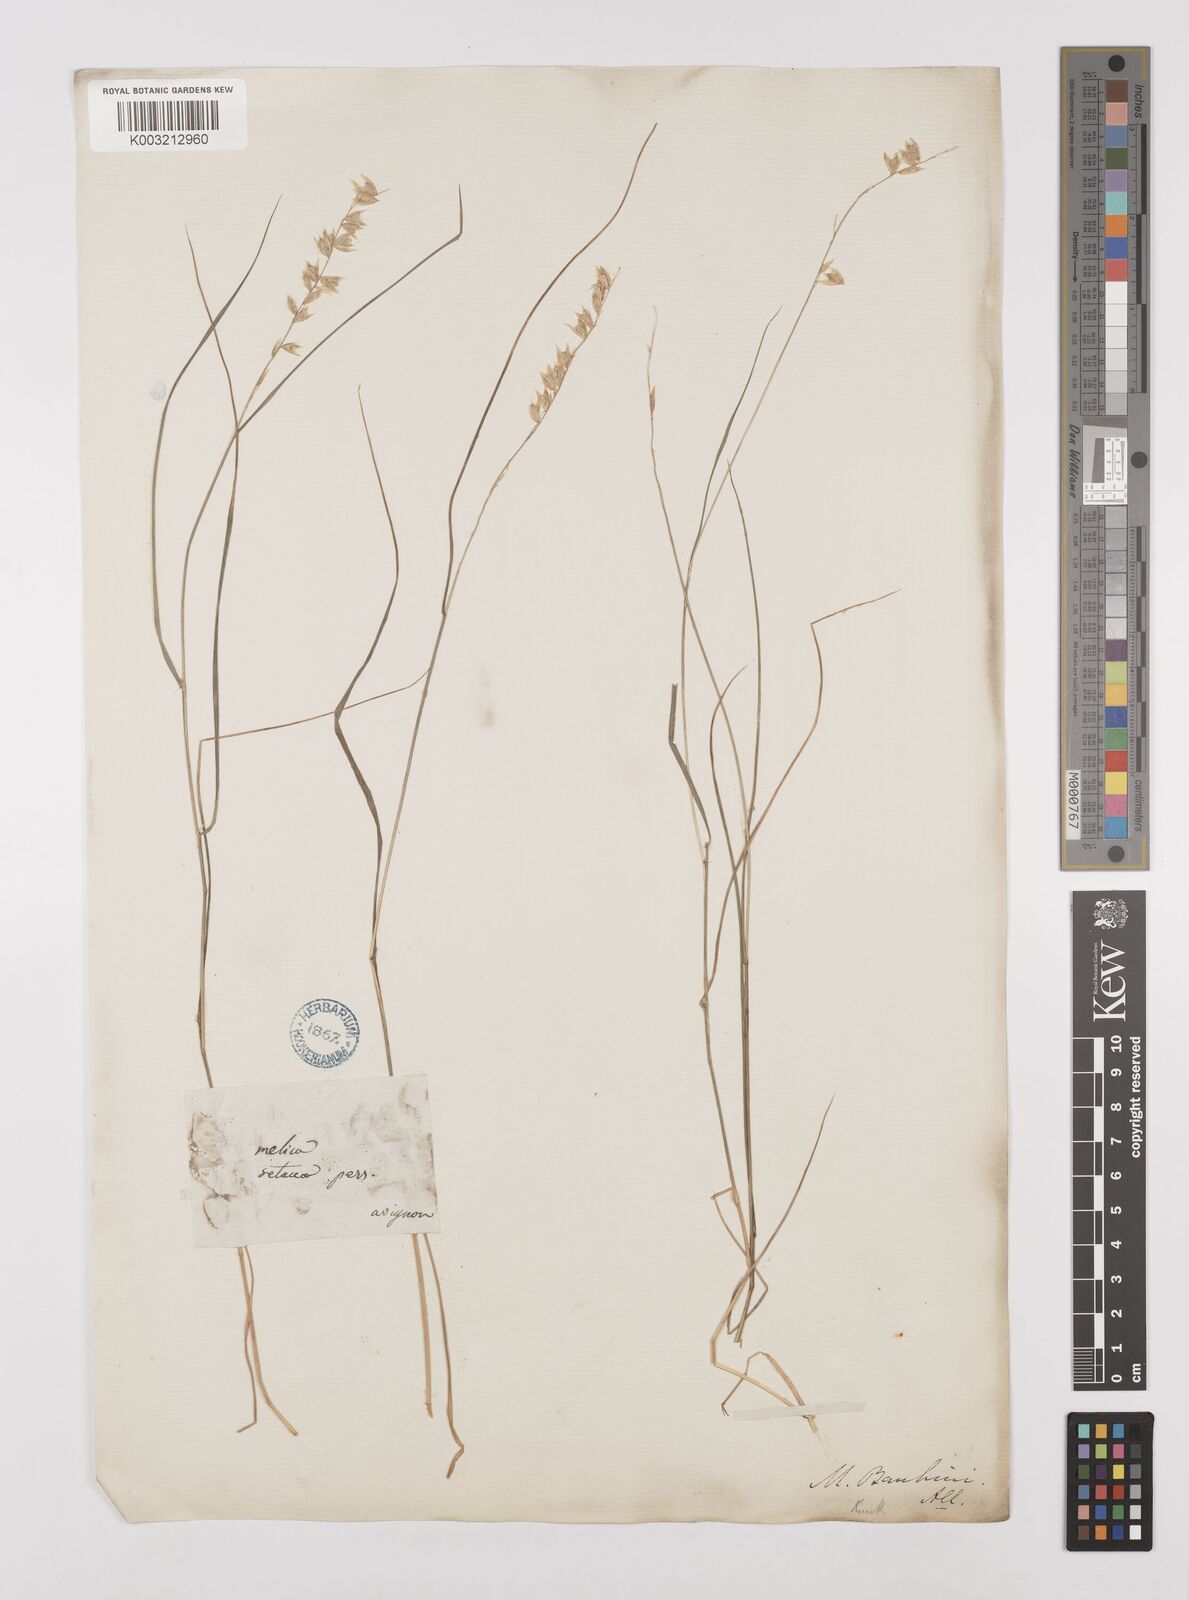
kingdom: Plantae
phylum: Tracheophyta
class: Liliopsida
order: Poales
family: Poaceae
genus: Melica
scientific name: Melica amethystina
